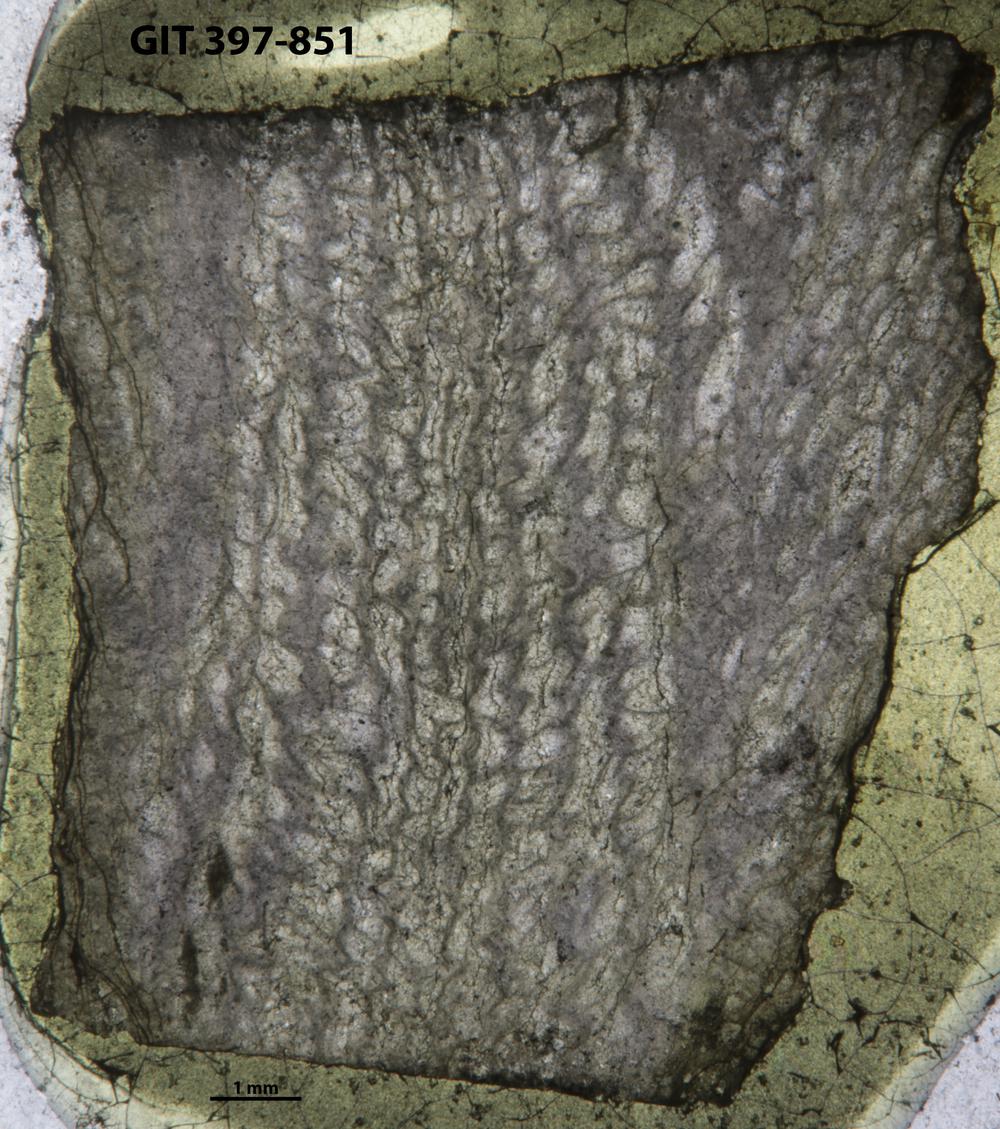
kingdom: Animalia
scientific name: Animalia
